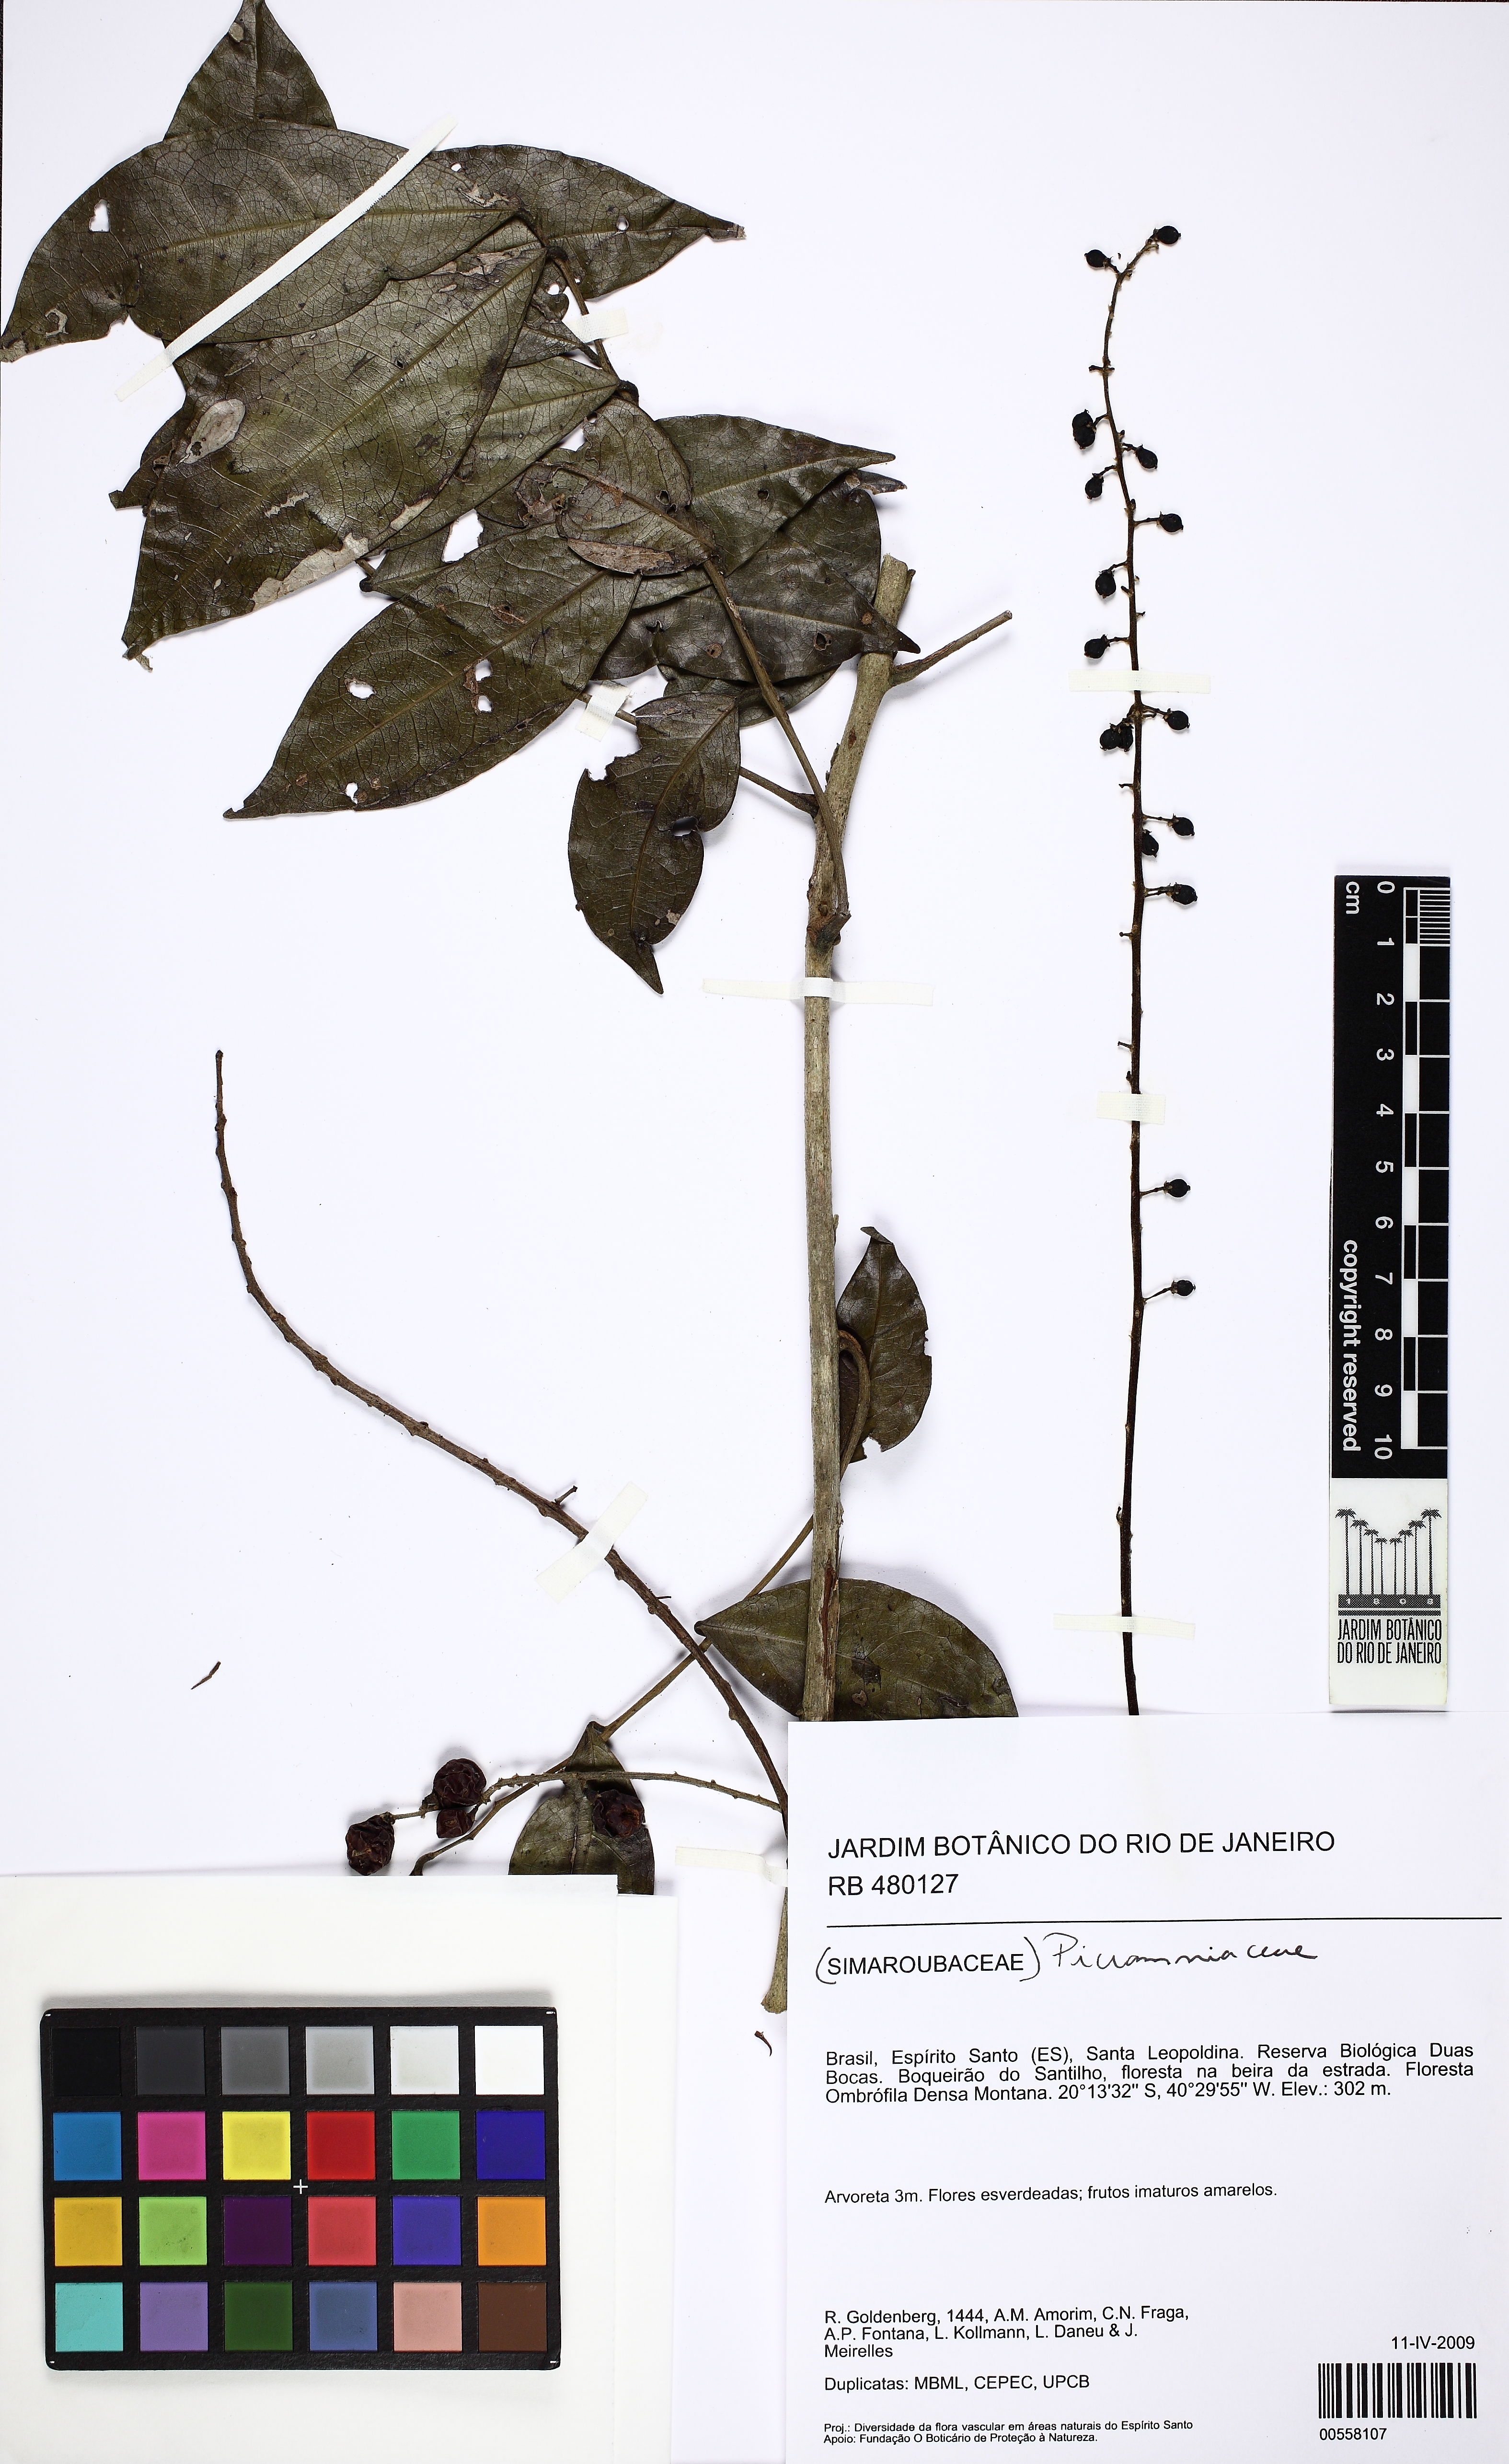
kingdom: Plantae
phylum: Tracheophyta
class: Magnoliopsida
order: Picramniales
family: Picramniaceae
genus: Picramnia
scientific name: Picramnia ramiflora
